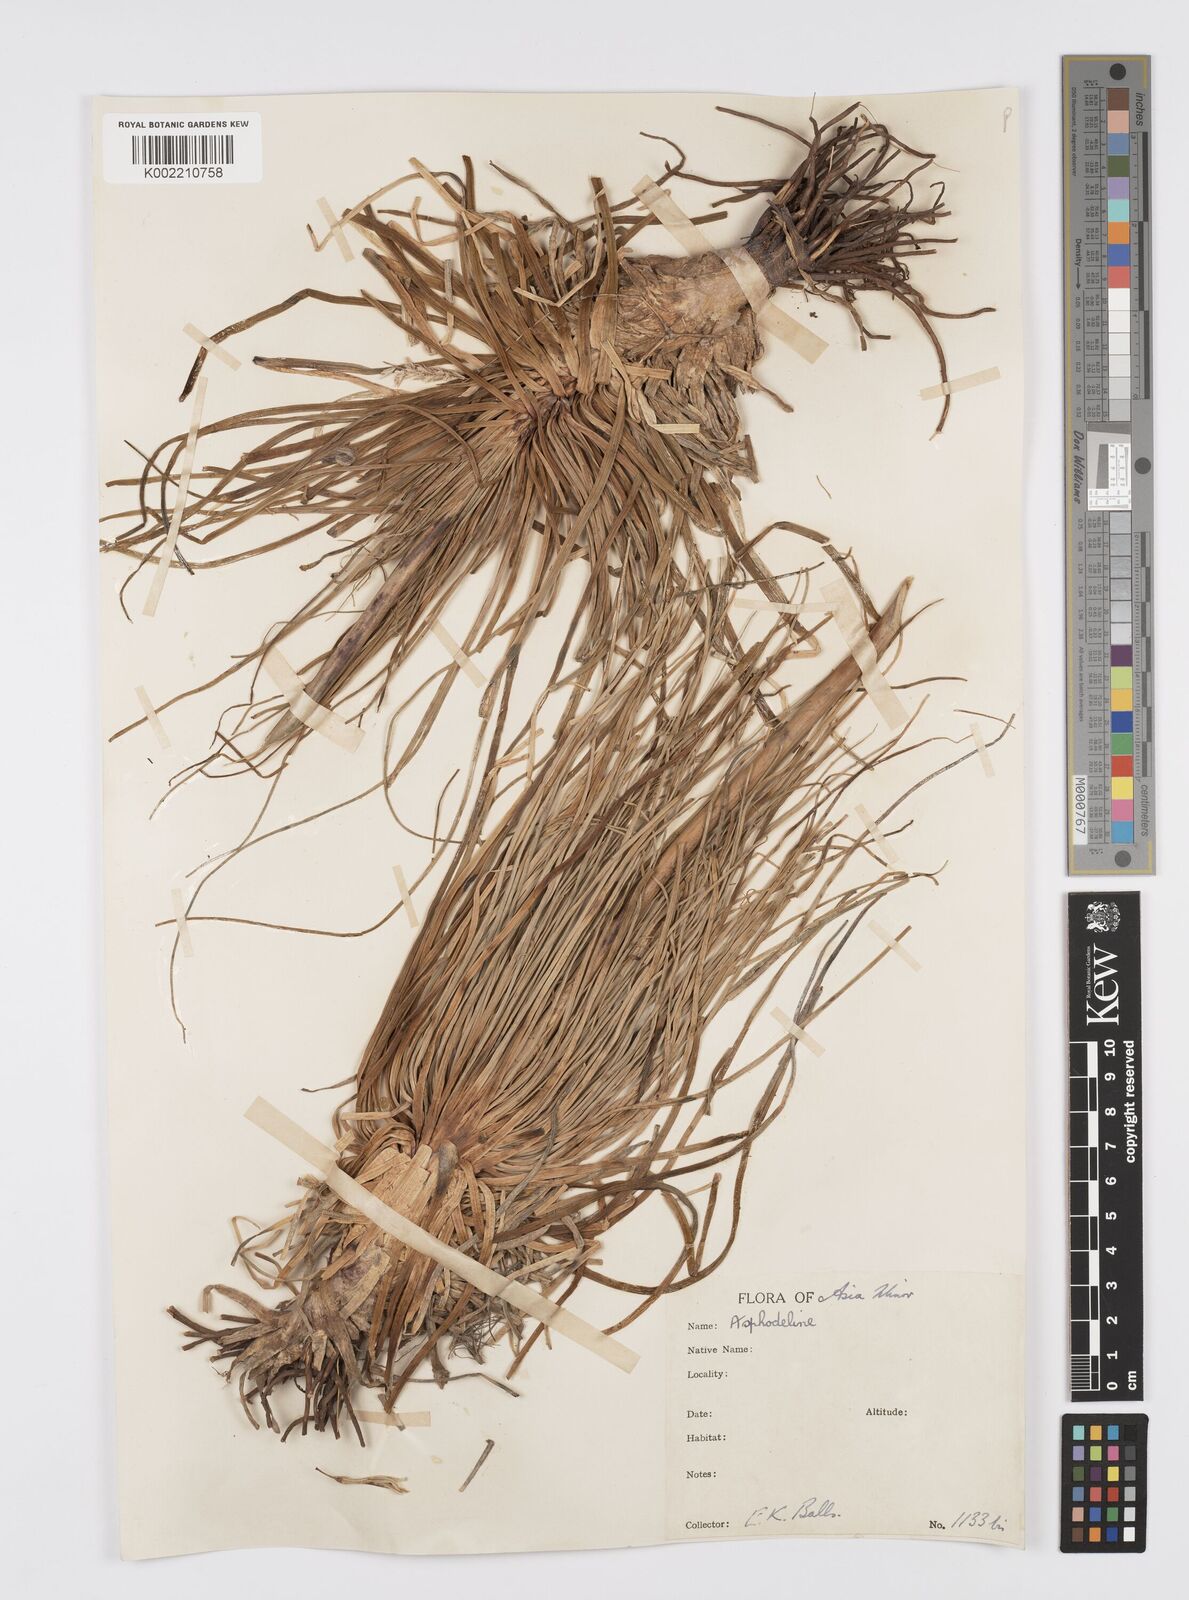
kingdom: Plantae
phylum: Tracheophyta
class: Liliopsida
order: Asparagales
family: Asphodelaceae
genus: Asphodeline
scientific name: Asphodeline
